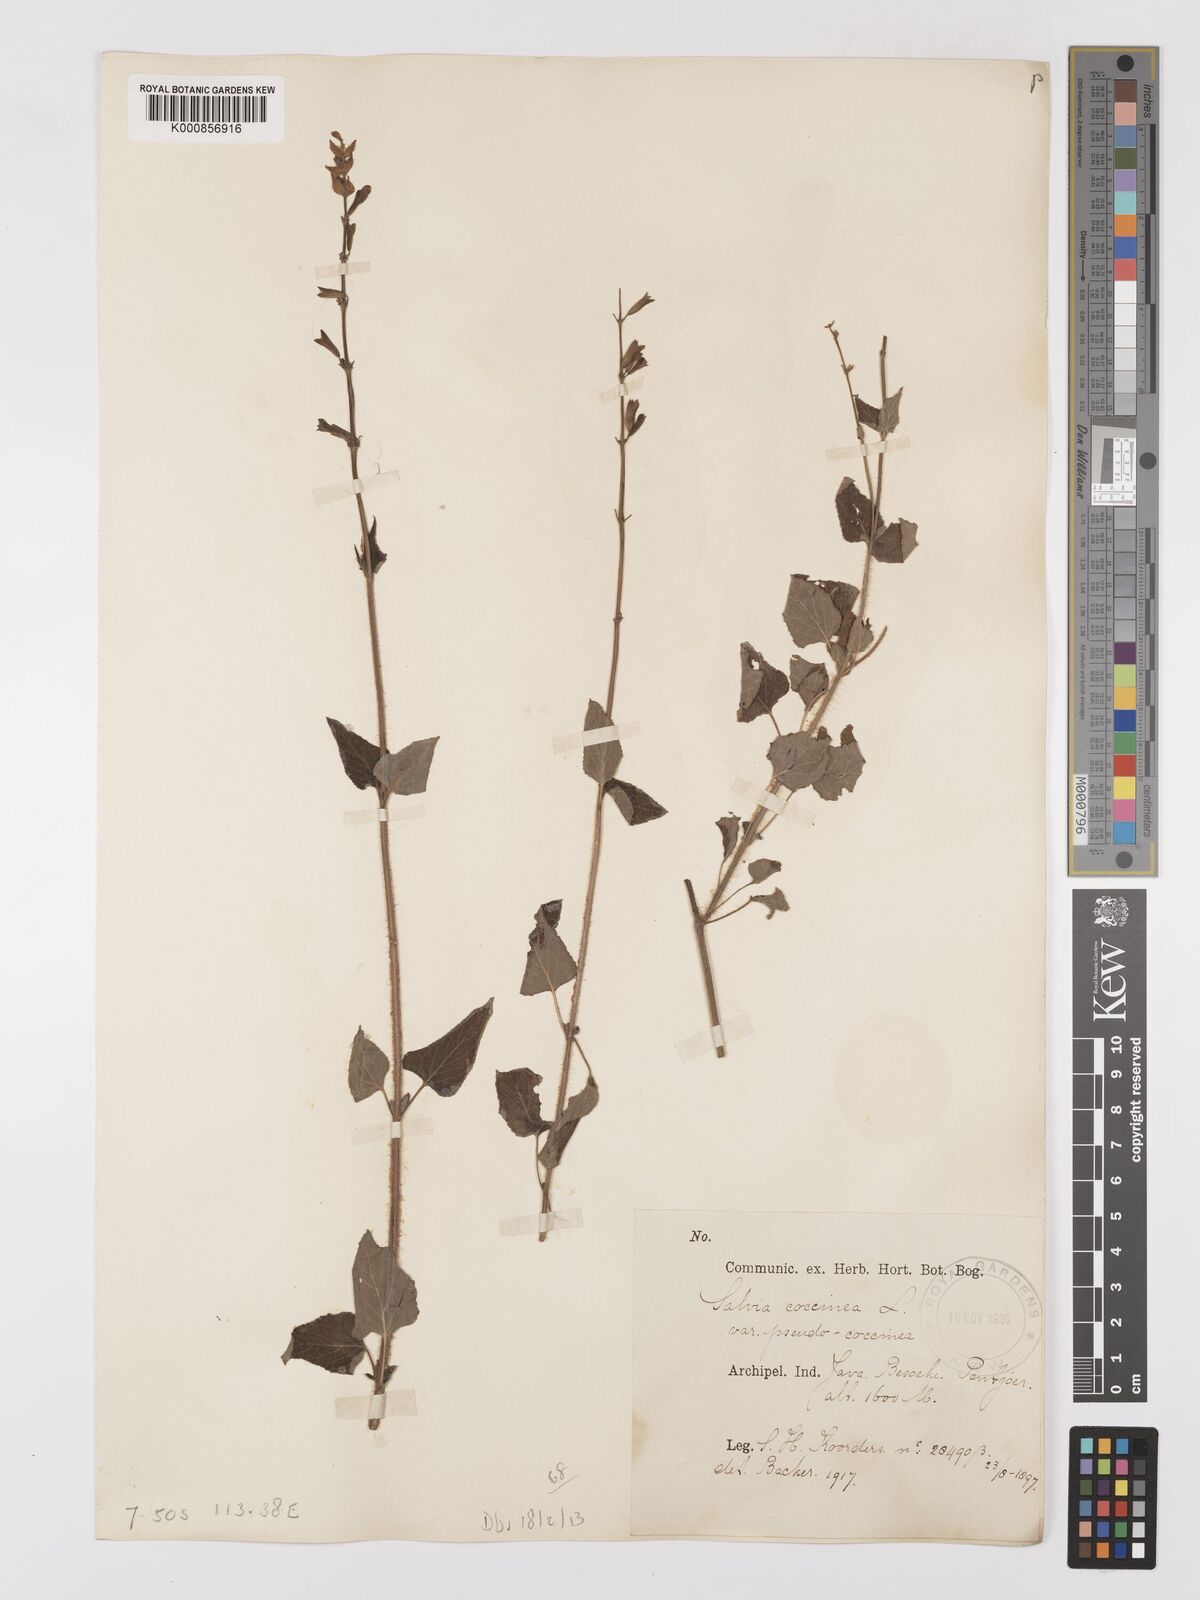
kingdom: Plantae
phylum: Tracheophyta
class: Magnoliopsida
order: Lamiales
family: Lamiaceae
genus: Salvia
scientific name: Salvia coccinea
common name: Blood sage
